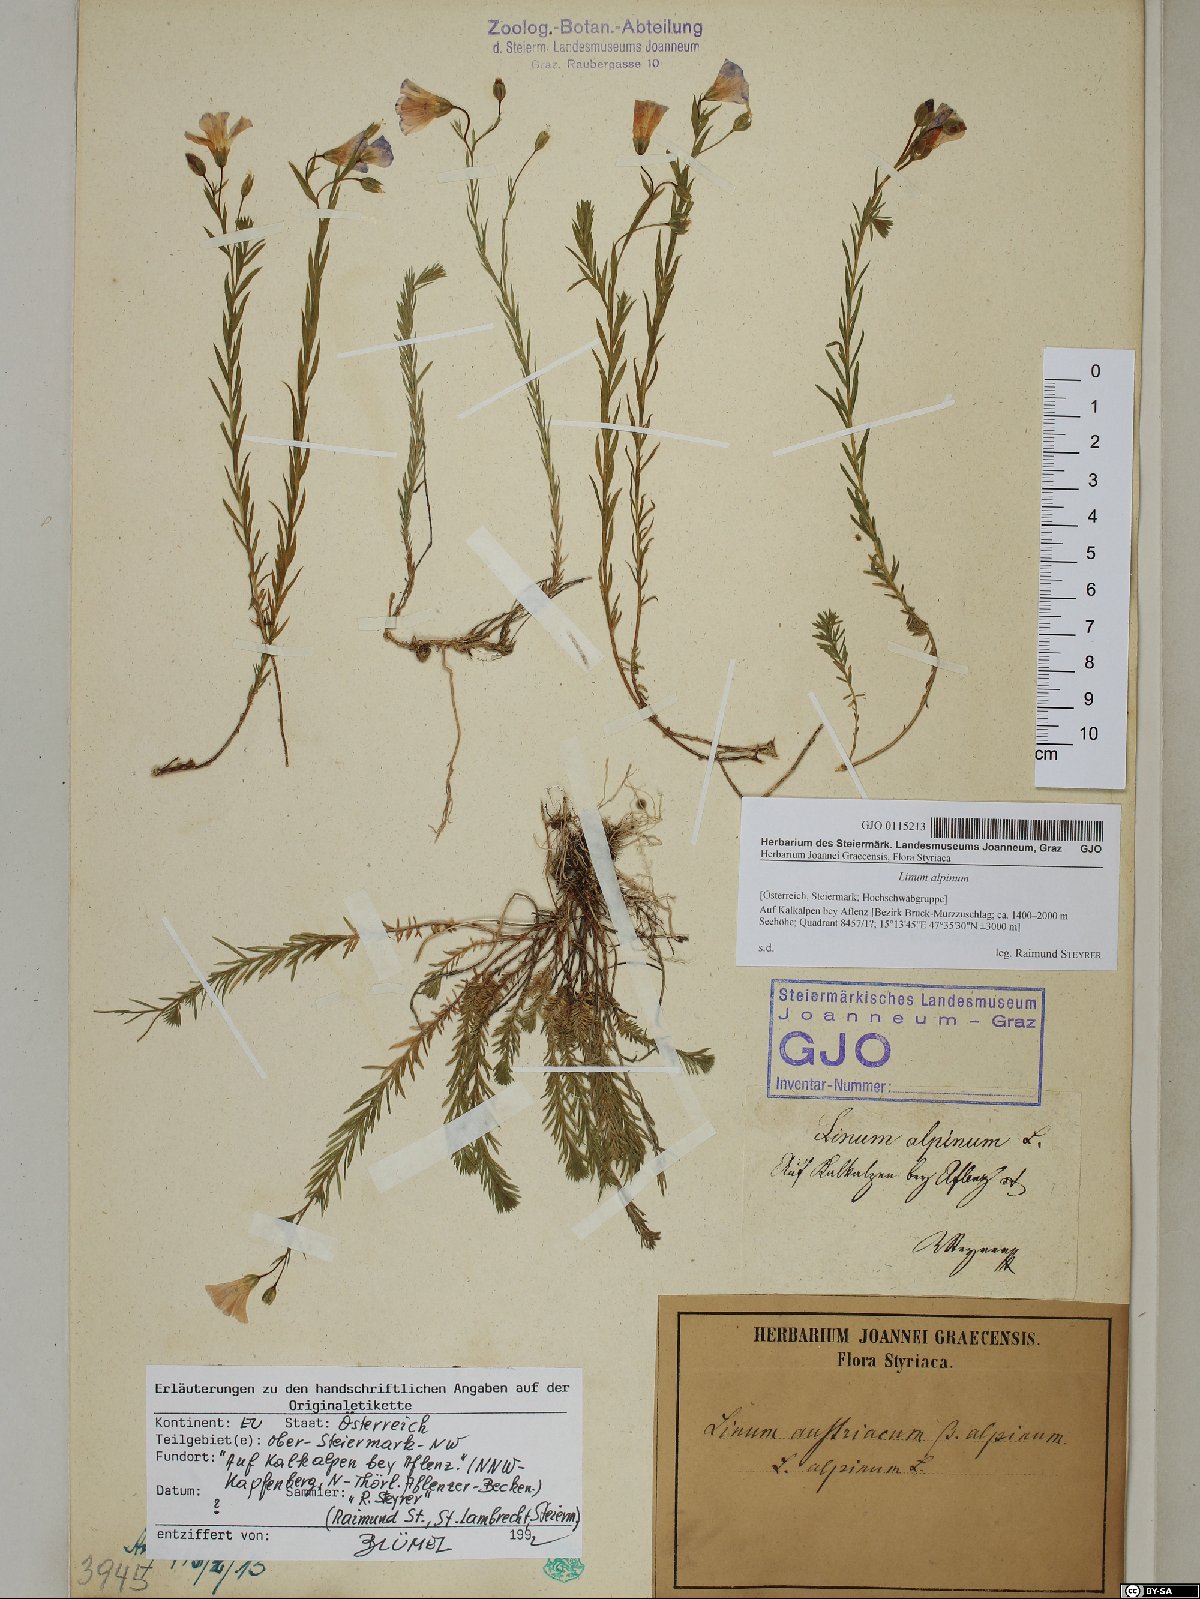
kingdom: Plantae
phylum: Tracheophyta
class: Magnoliopsida
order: Malpighiales
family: Linaceae
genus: Linum
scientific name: Linum alpinum
